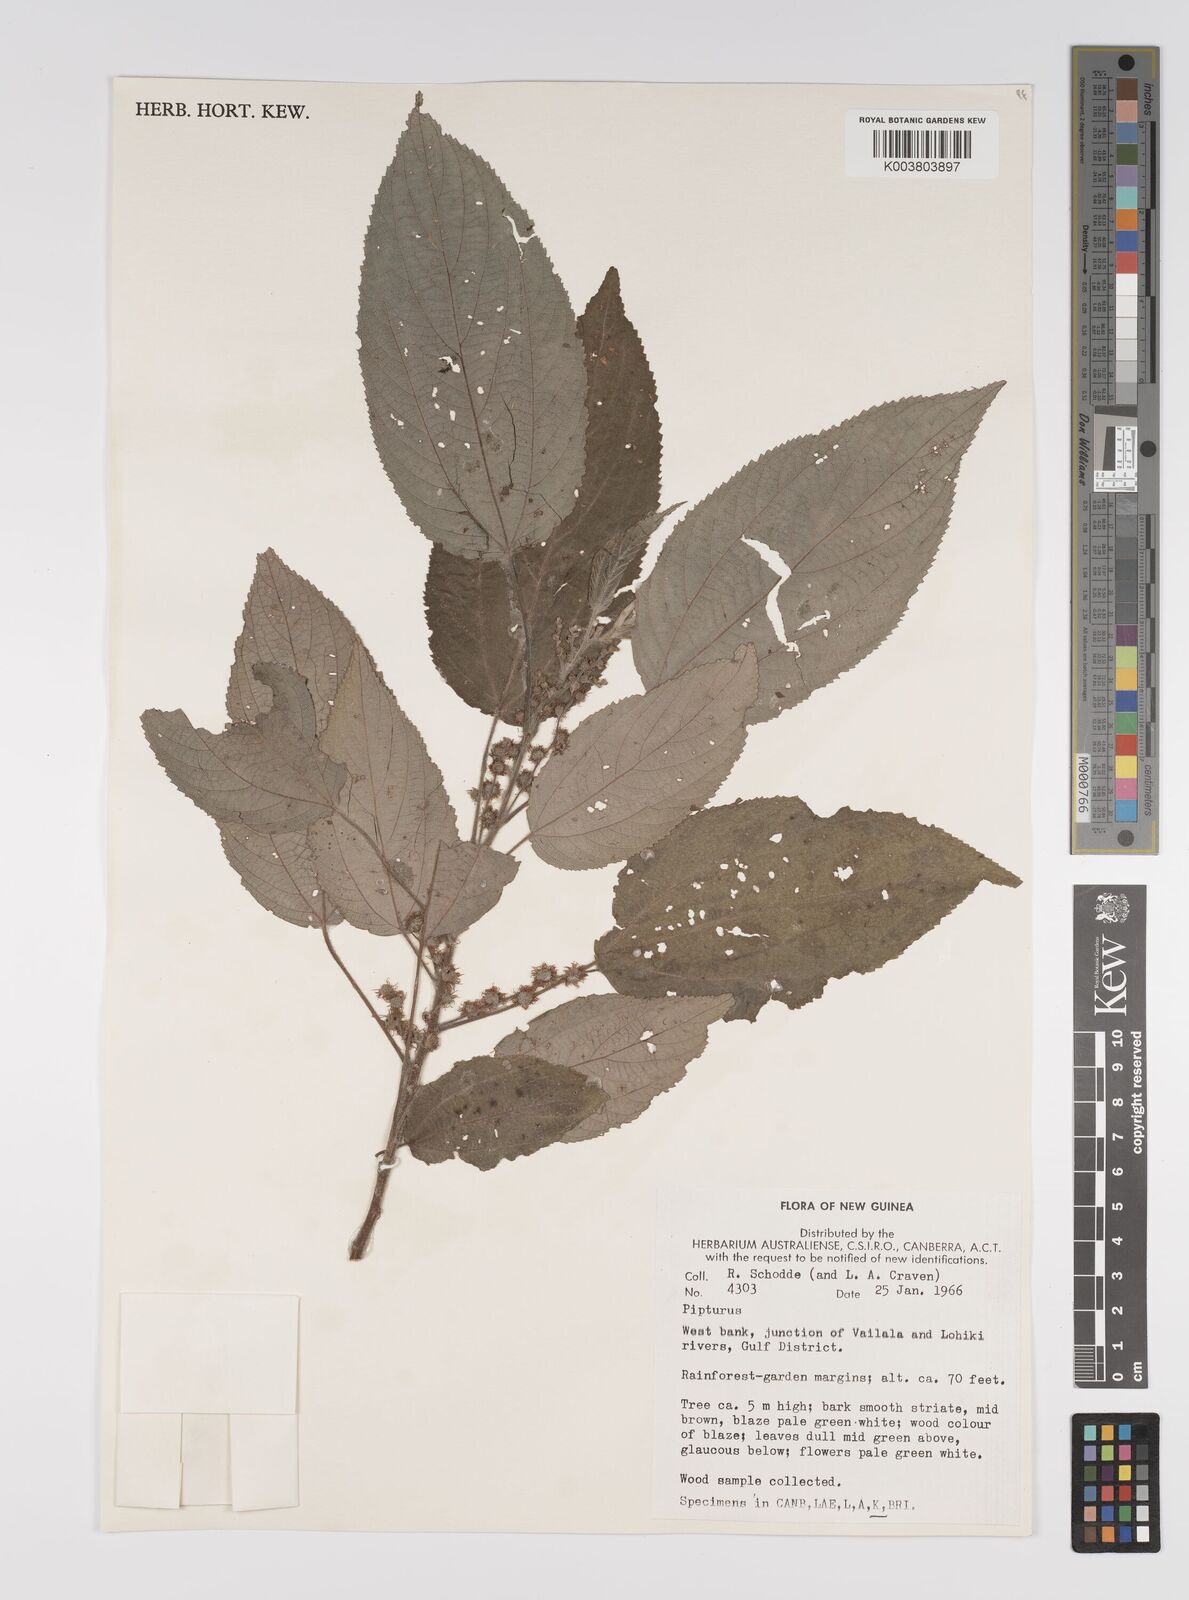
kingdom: Plantae
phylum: Tracheophyta
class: Magnoliopsida
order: Rosales
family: Urticaceae
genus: Pipturus
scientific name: Pipturus argenteus
